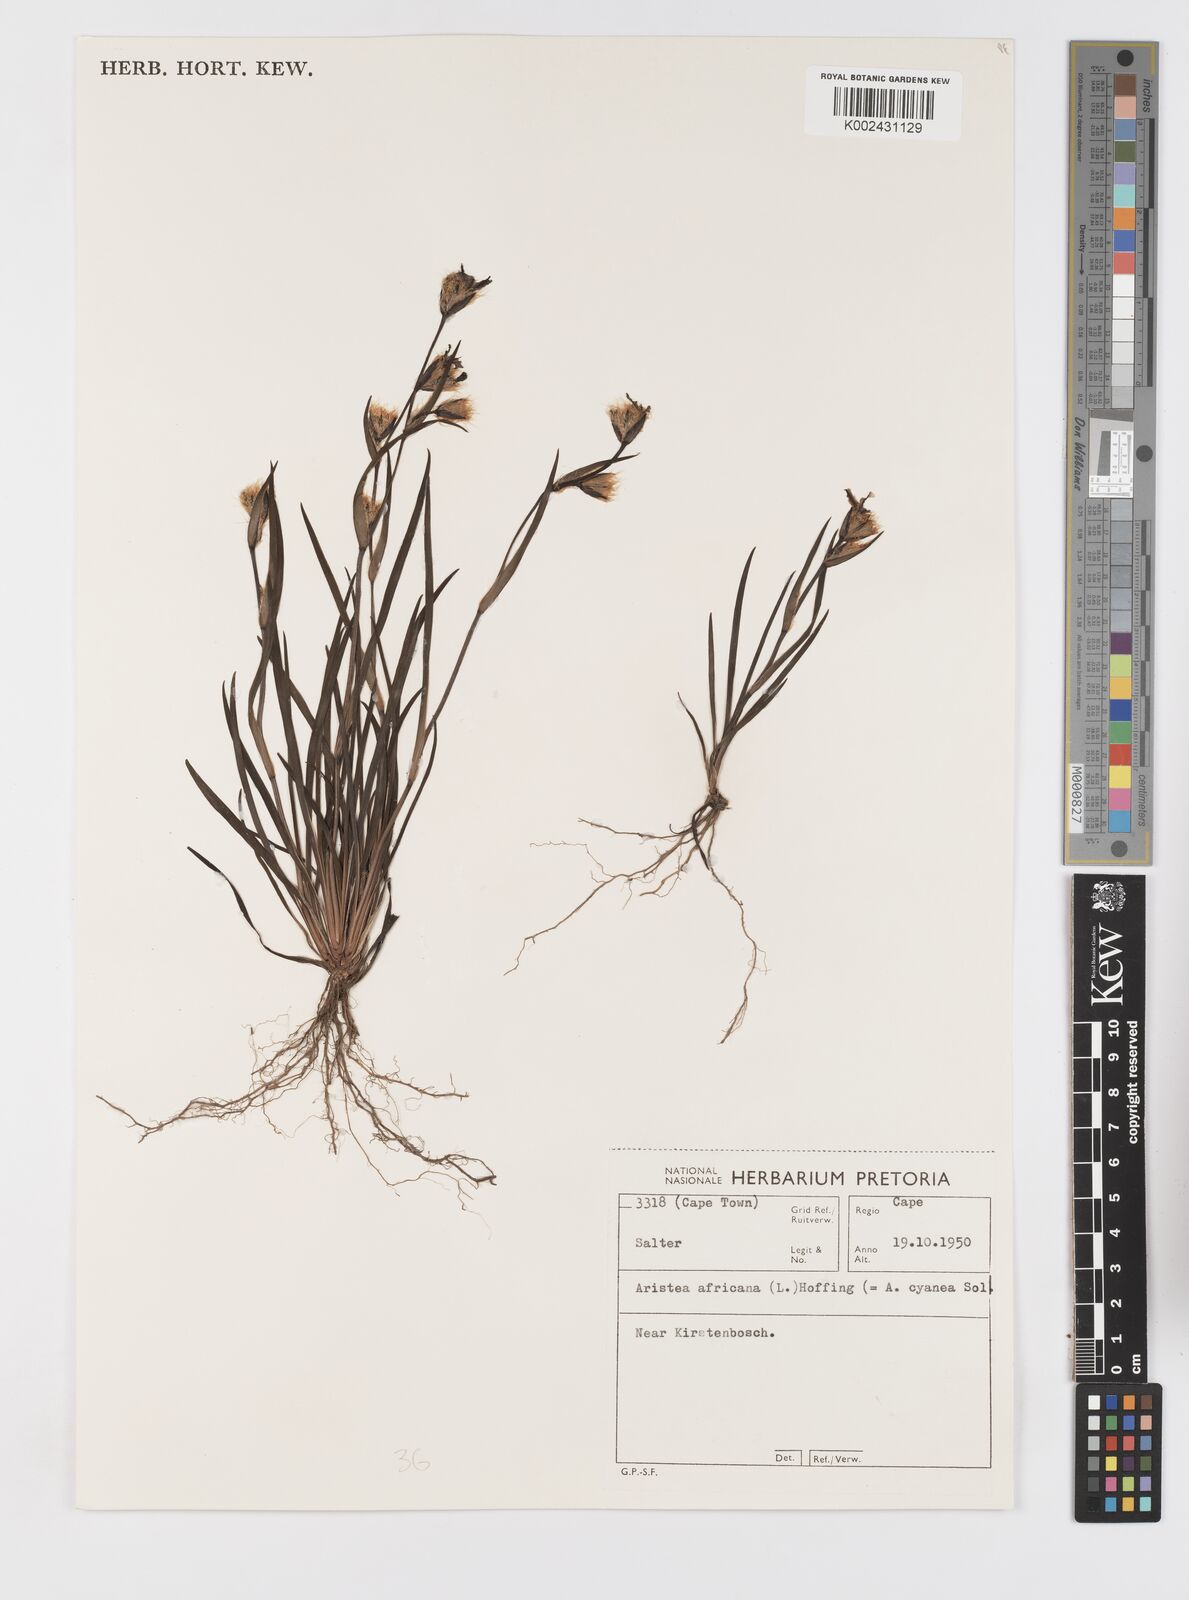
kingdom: Plantae
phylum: Tracheophyta
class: Liliopsida
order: Asparagales
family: Iridaceae
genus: Aristea
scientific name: Aristea africana
